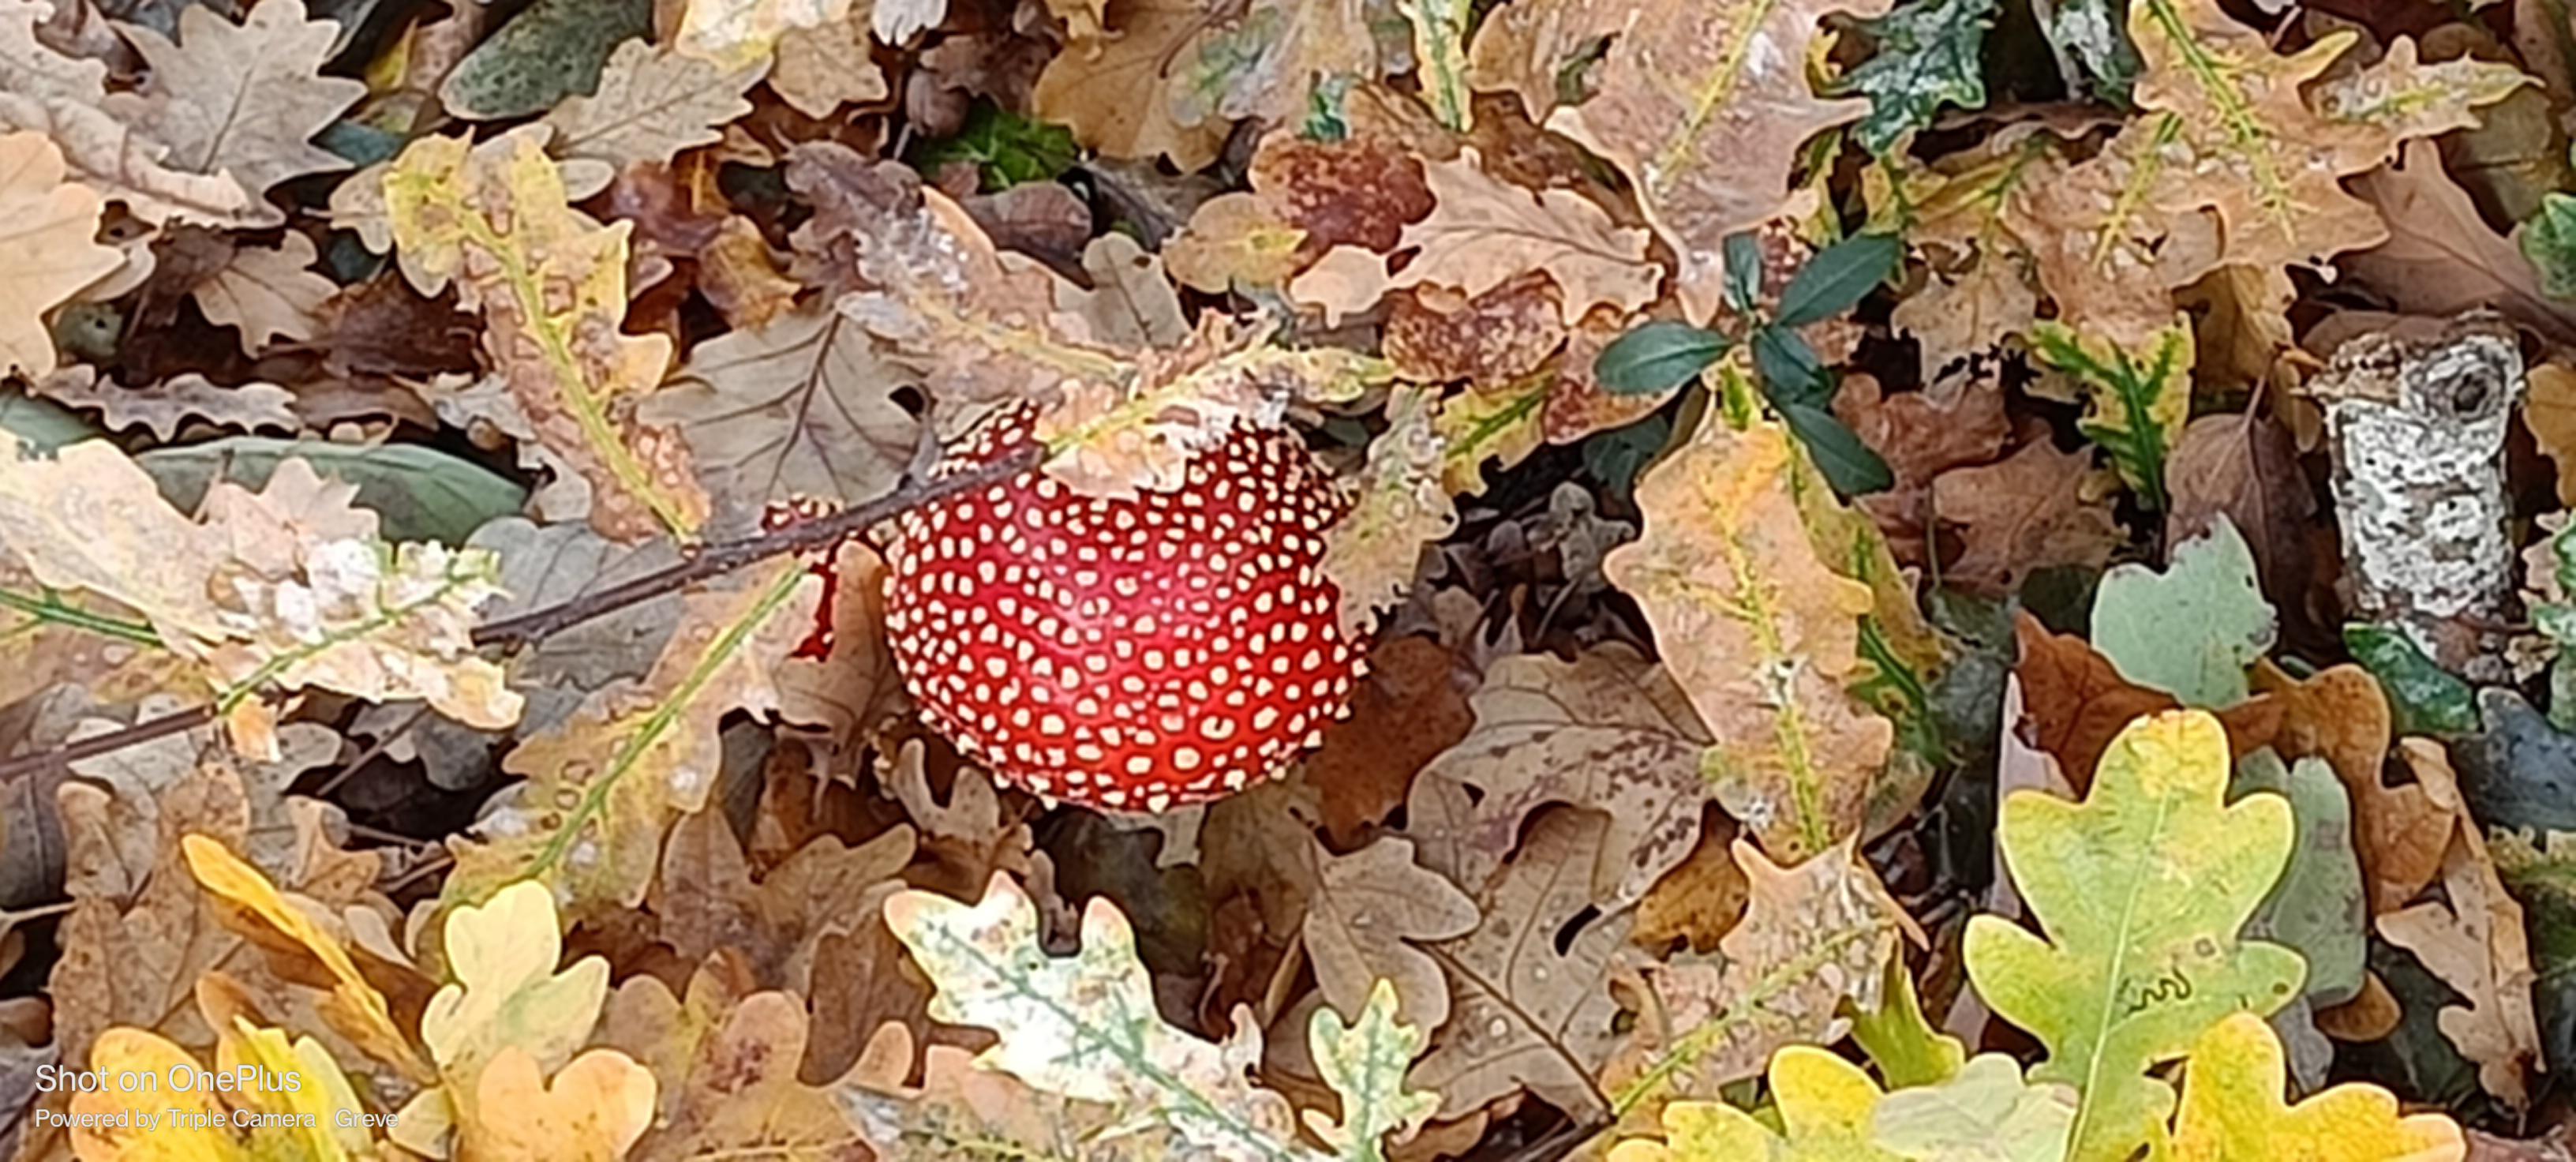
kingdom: Fungi
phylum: Basidiomycota
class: Agaricomycetes
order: Agaricales
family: Amanitaceae
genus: Amanita
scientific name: Amanita muscaria
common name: rød fluesvamp
